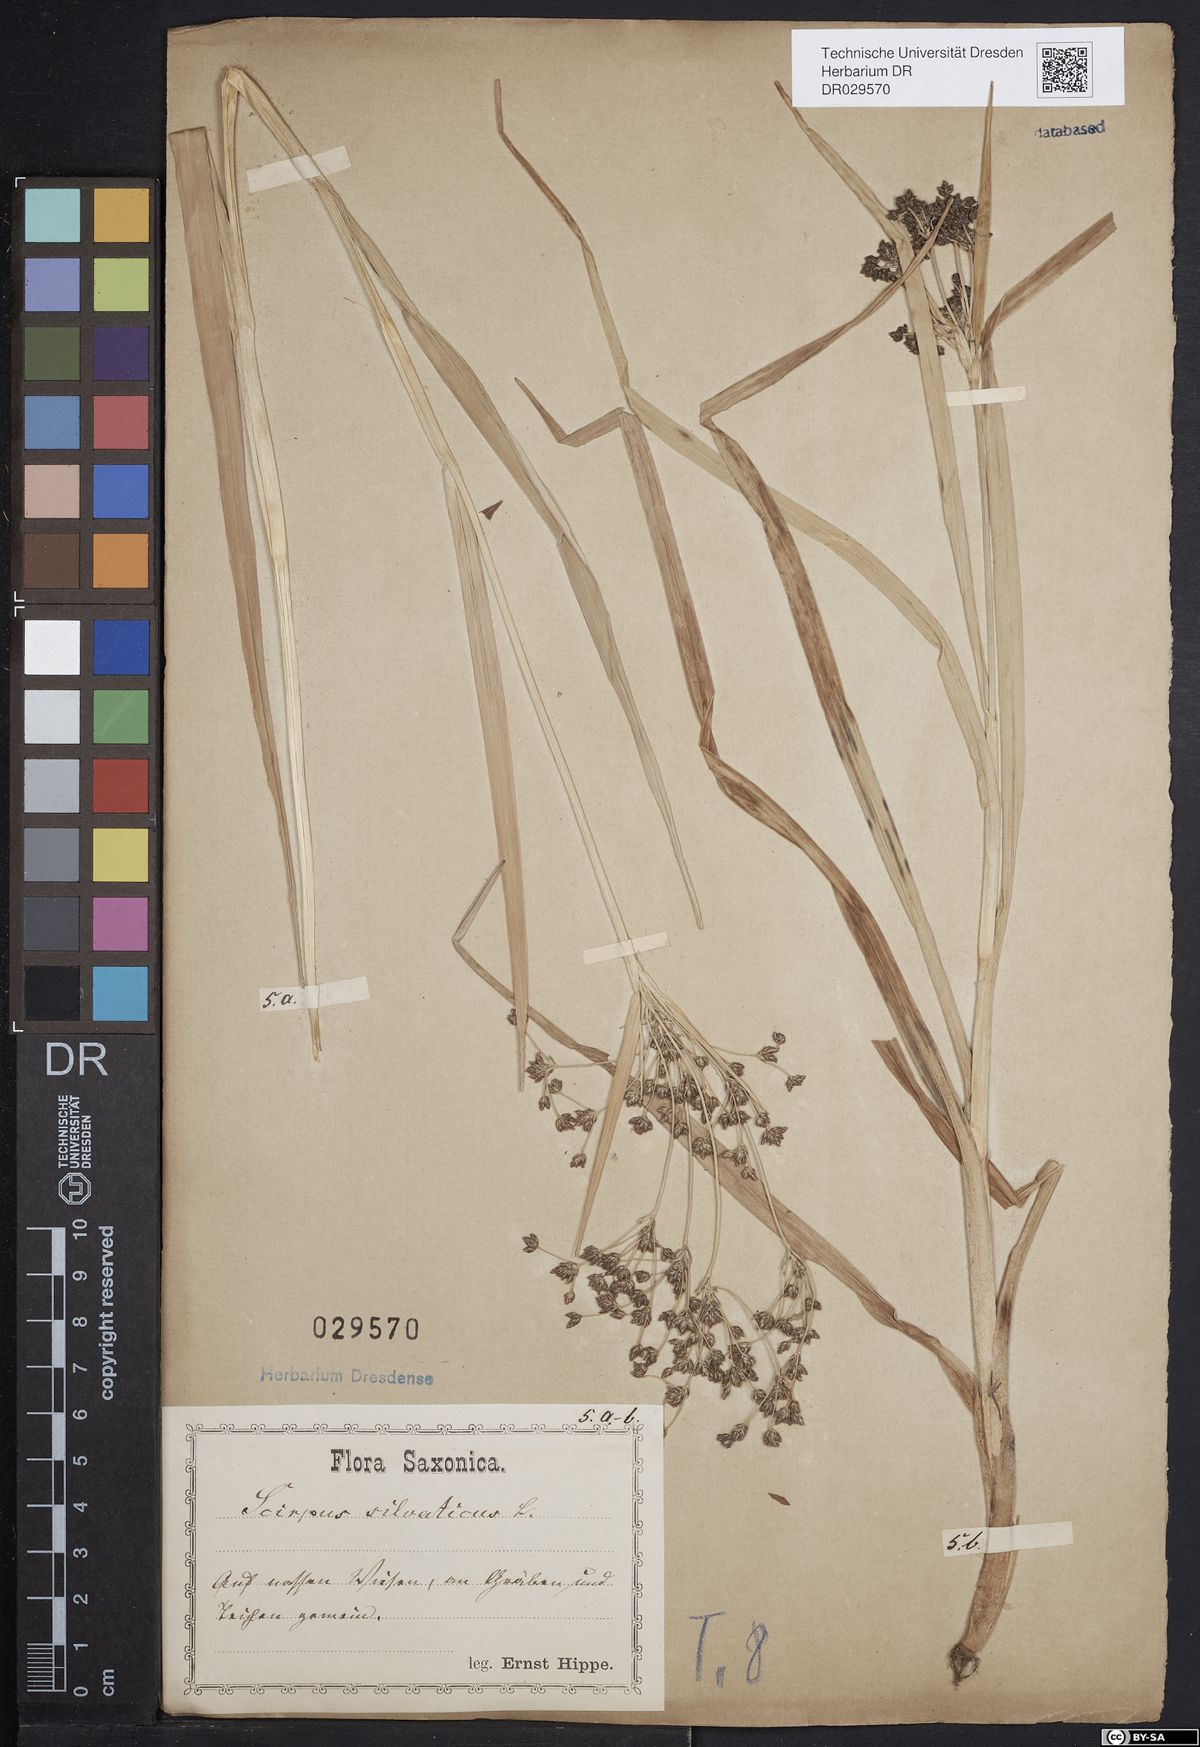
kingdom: Plantae
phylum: Tracheophyta
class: Liliopsida
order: Poales
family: Cyperaceae
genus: Scirpus
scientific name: Scirpus sylvaticus
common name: Wood club-rush
